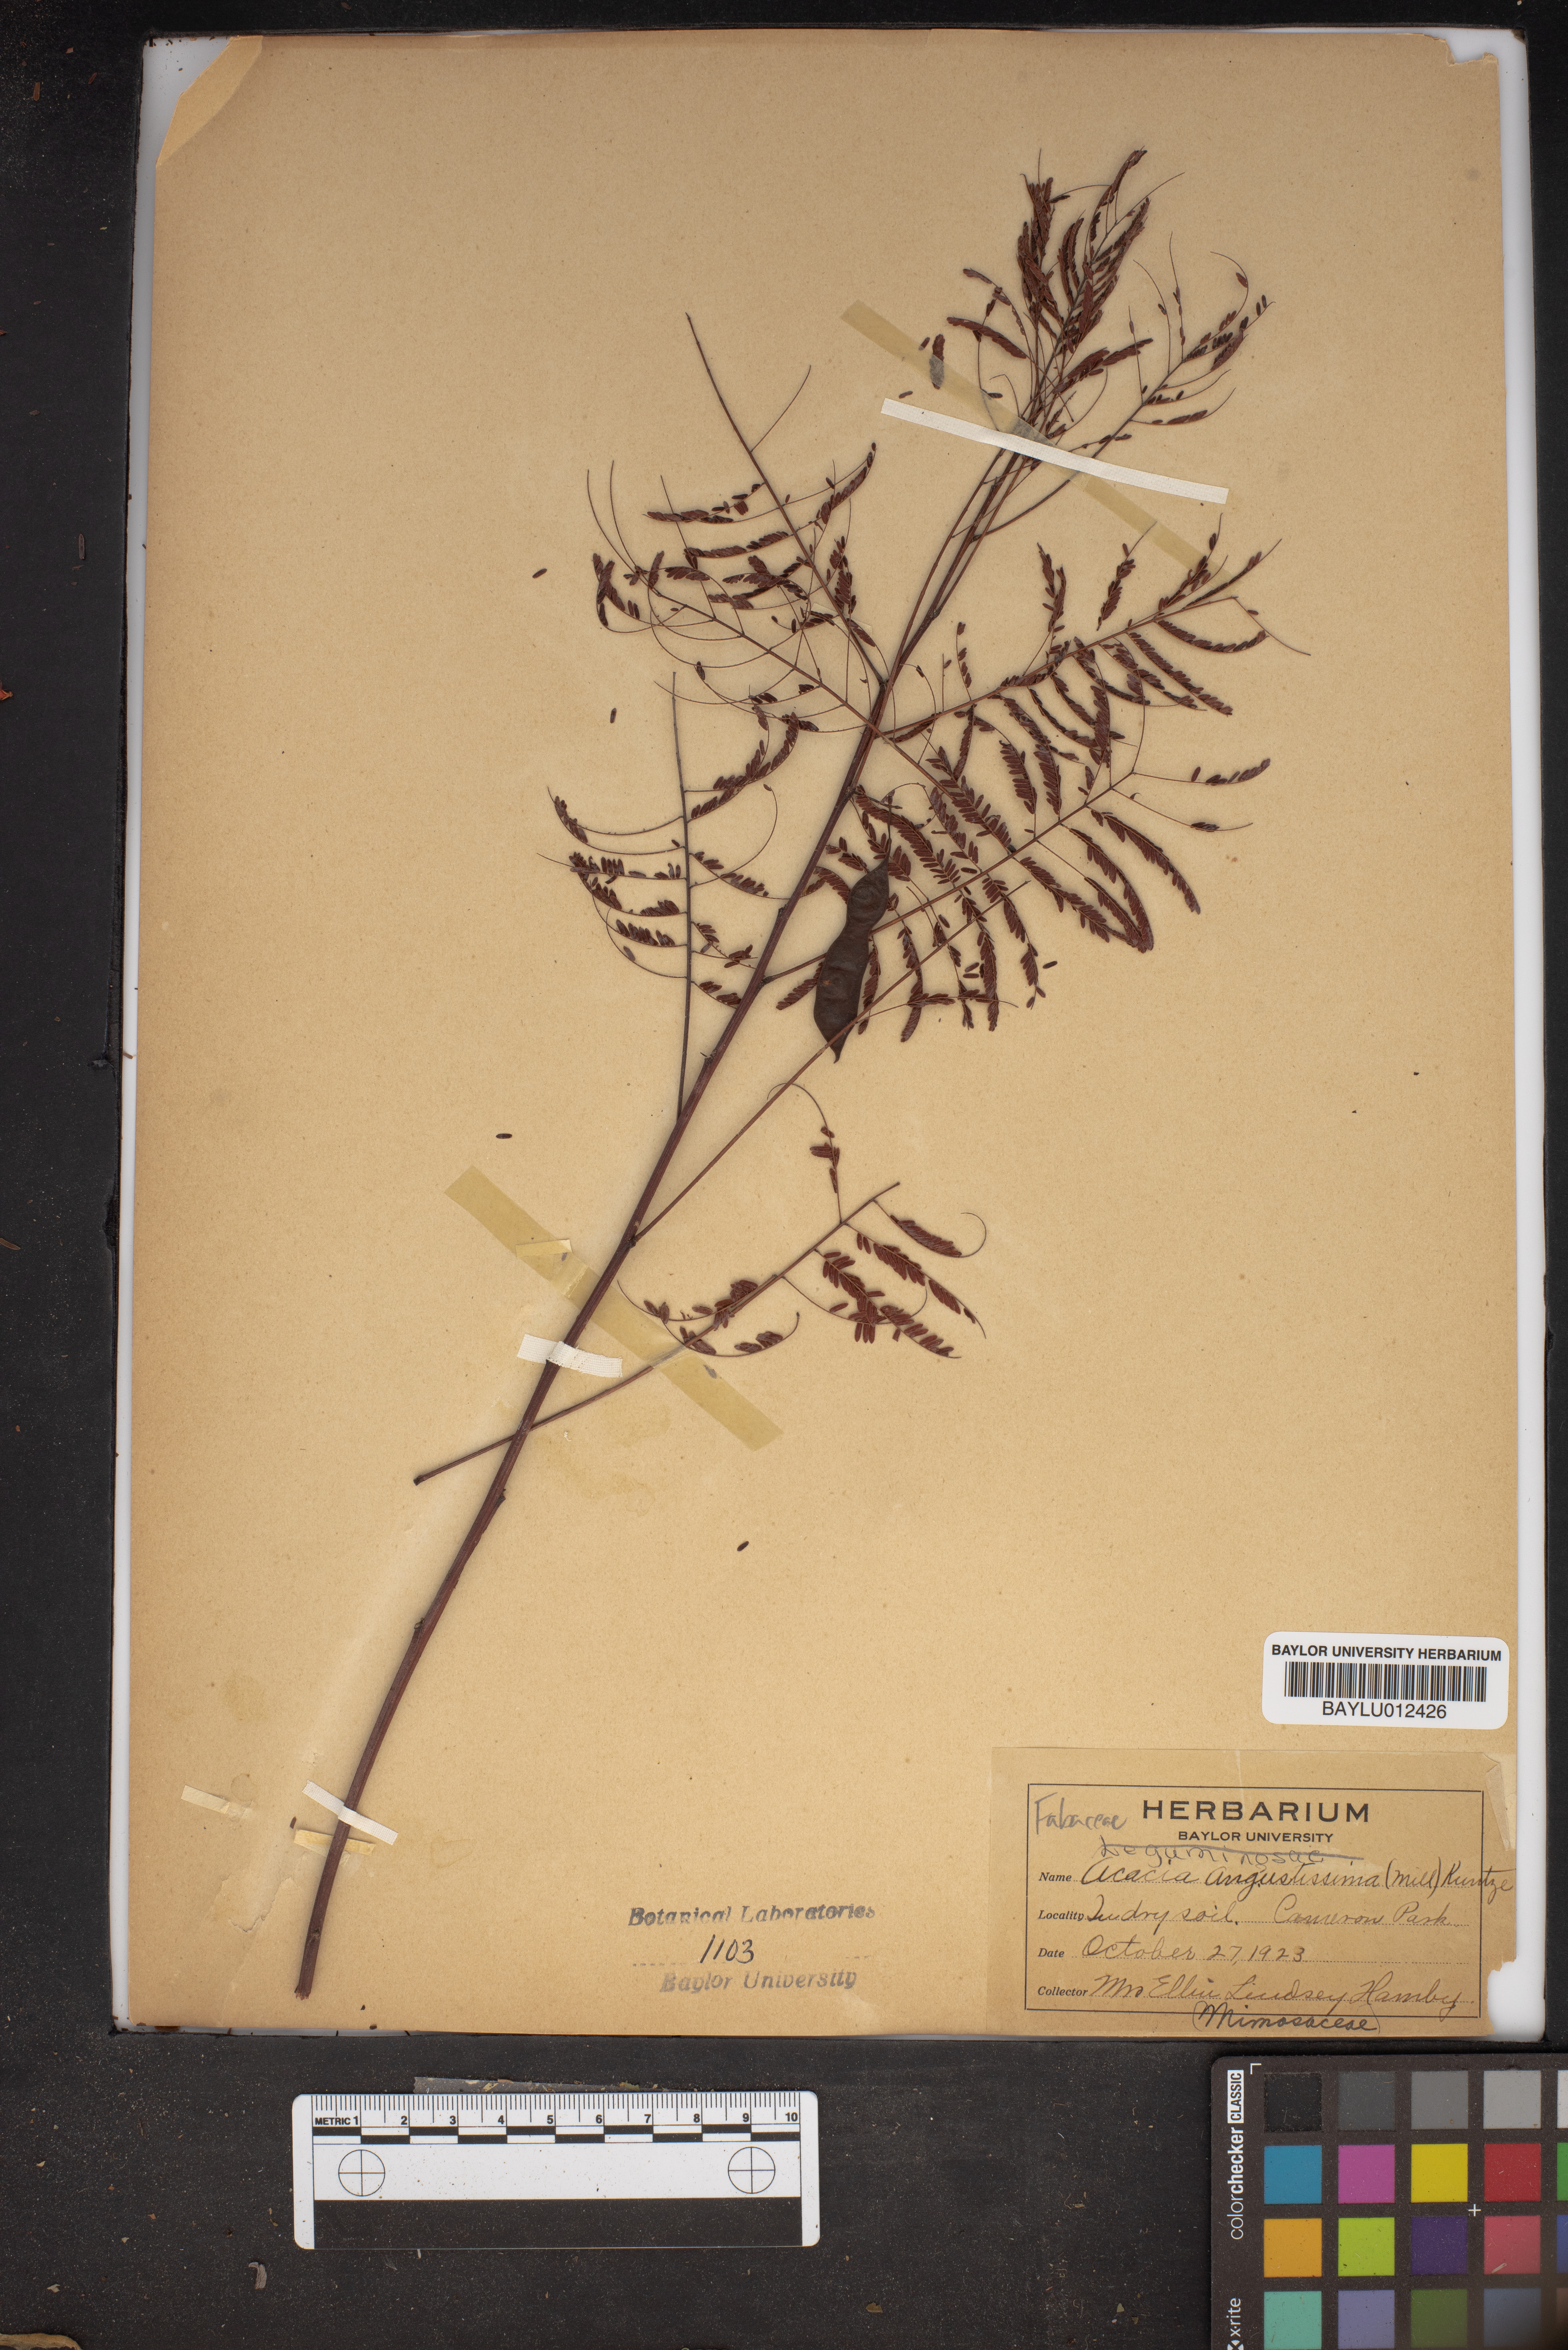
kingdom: Plantae
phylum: Tracheophyta
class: Magnoliopsida
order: Fabales
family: Fabaceae
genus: Acaciella
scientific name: Acaciella angustissima
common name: Prairie acacia
